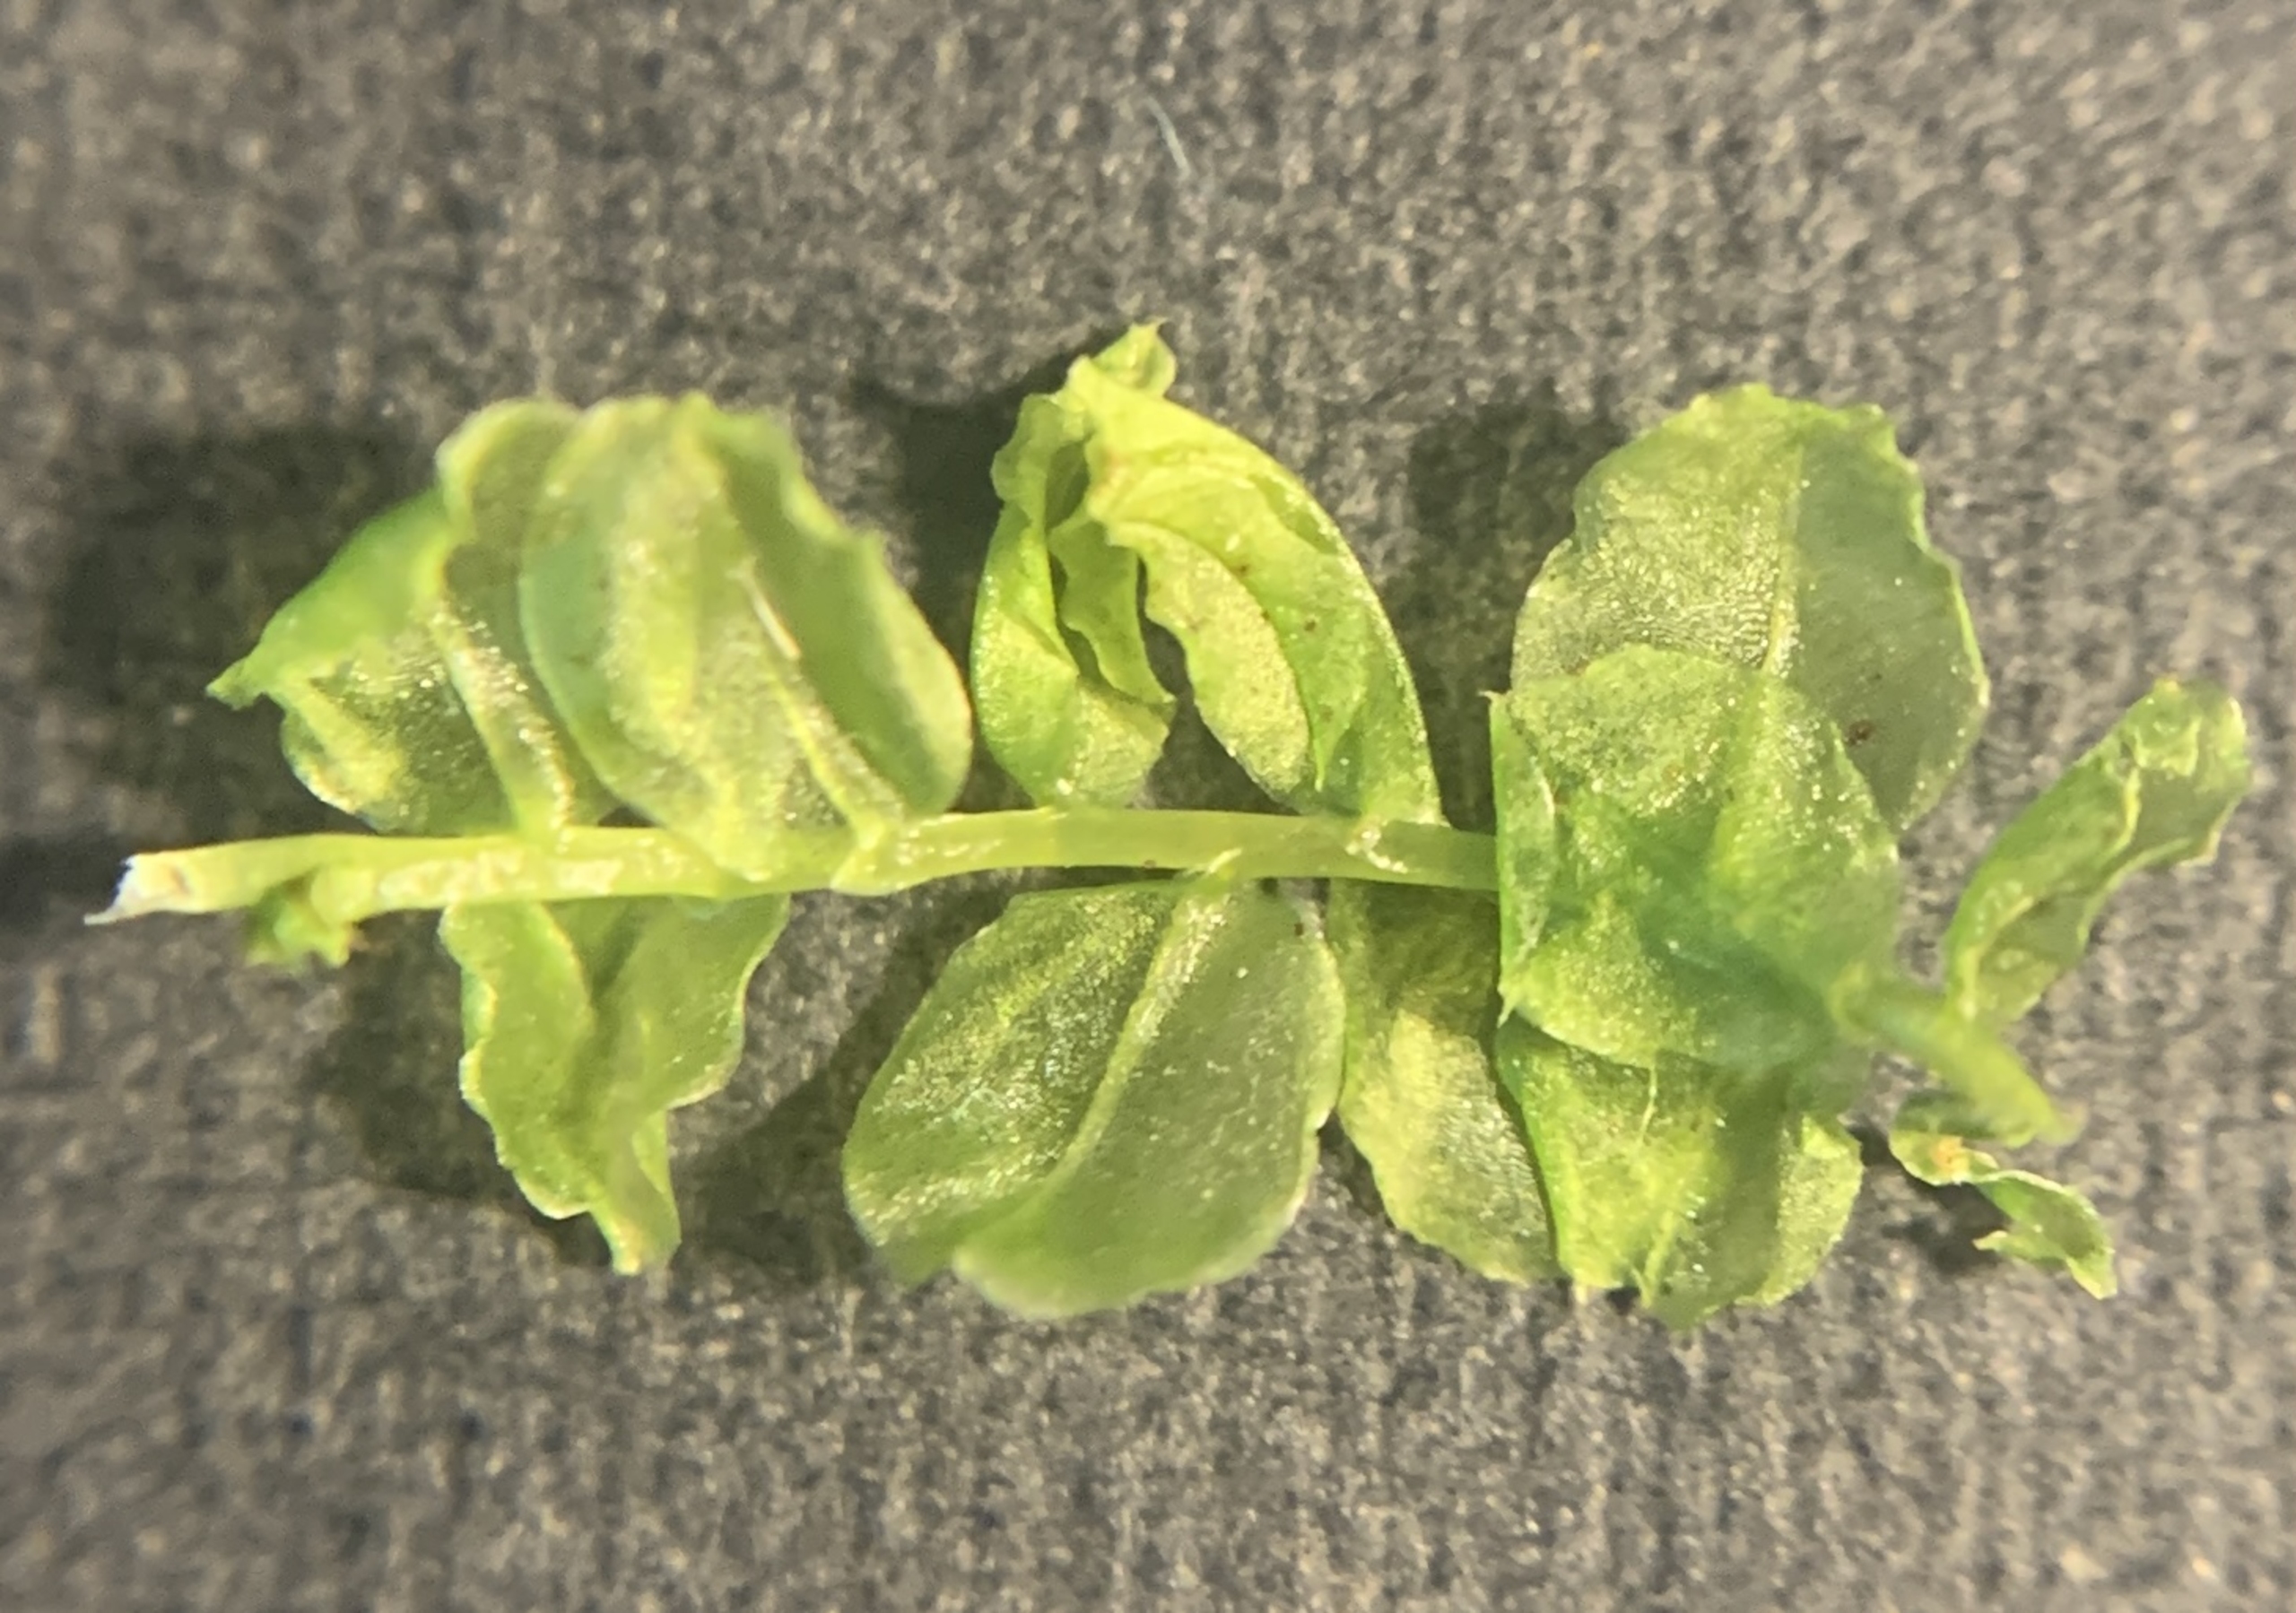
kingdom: Plantae
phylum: Bryophyta
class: Bryopsida
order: Bryales
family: Mniaceae
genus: Plagiomnium
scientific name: Plagiomnium affine
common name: Fælled-krybstjerne
